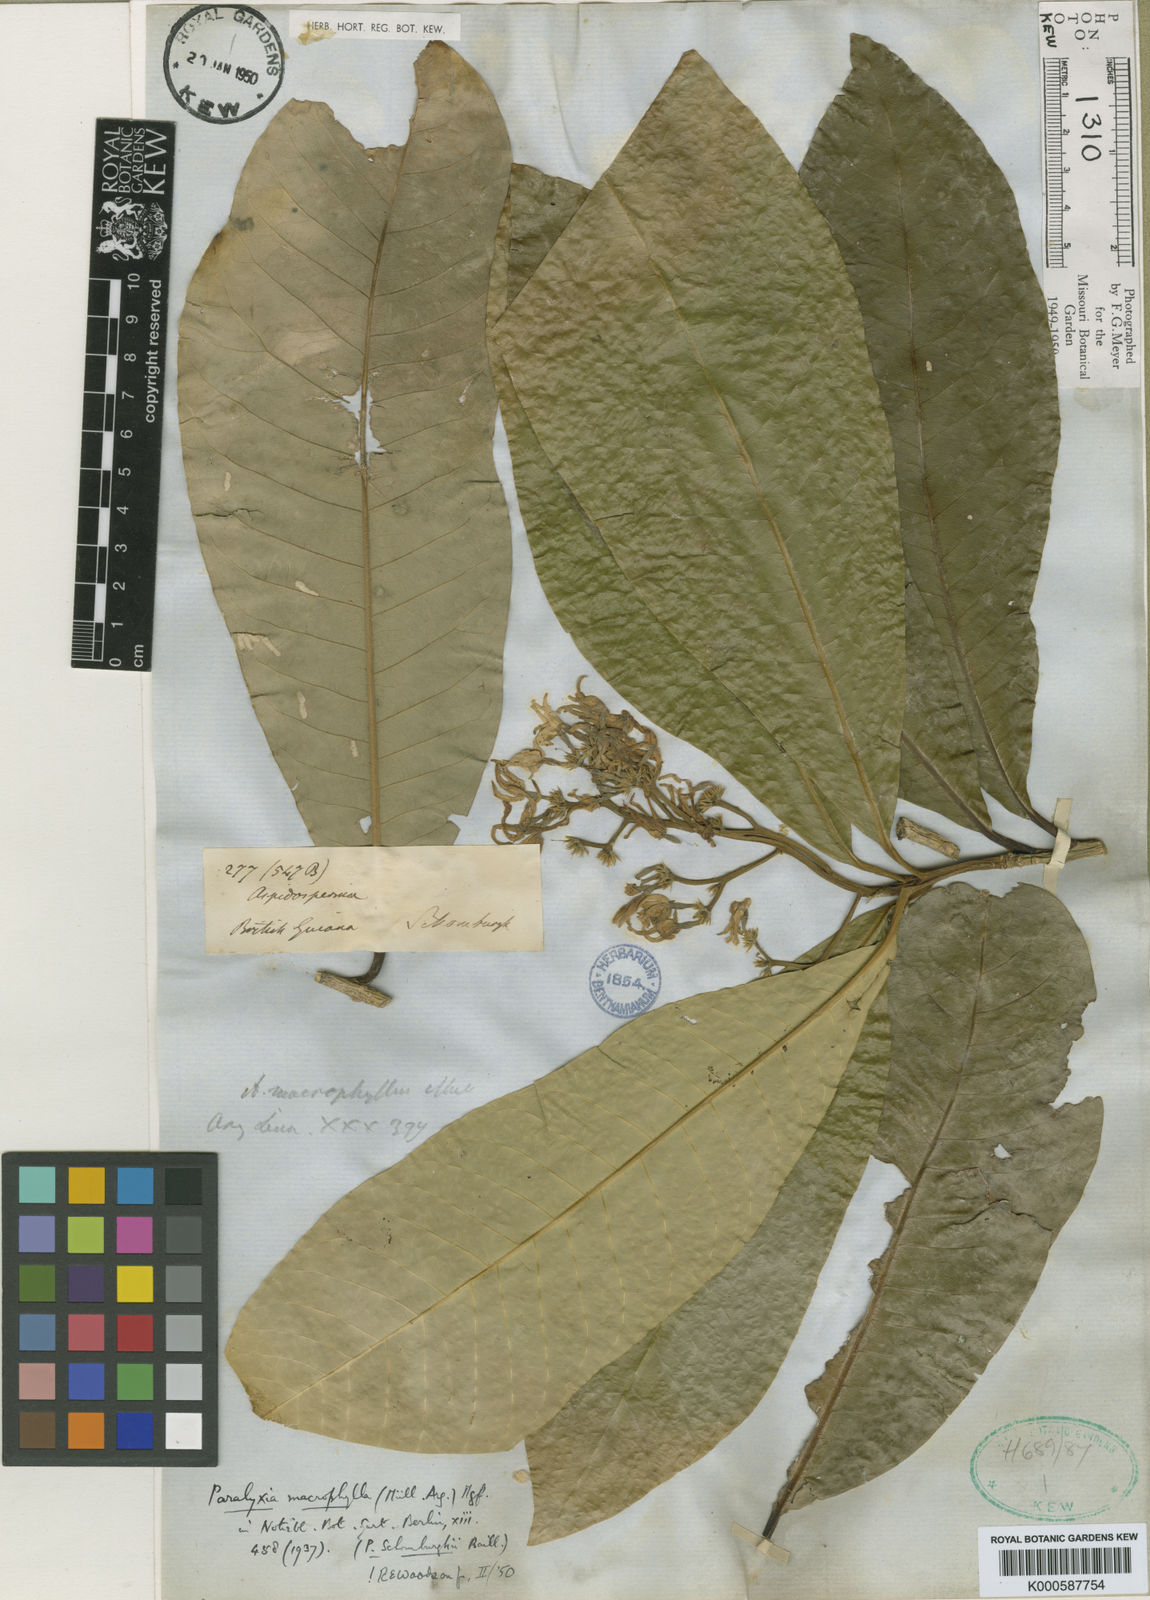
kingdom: Plantae
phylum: Tracheophyta
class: Magnoliopsida
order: Gentianales
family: Apocynaceae
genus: Aspidosperma
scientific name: Aspidosperma
